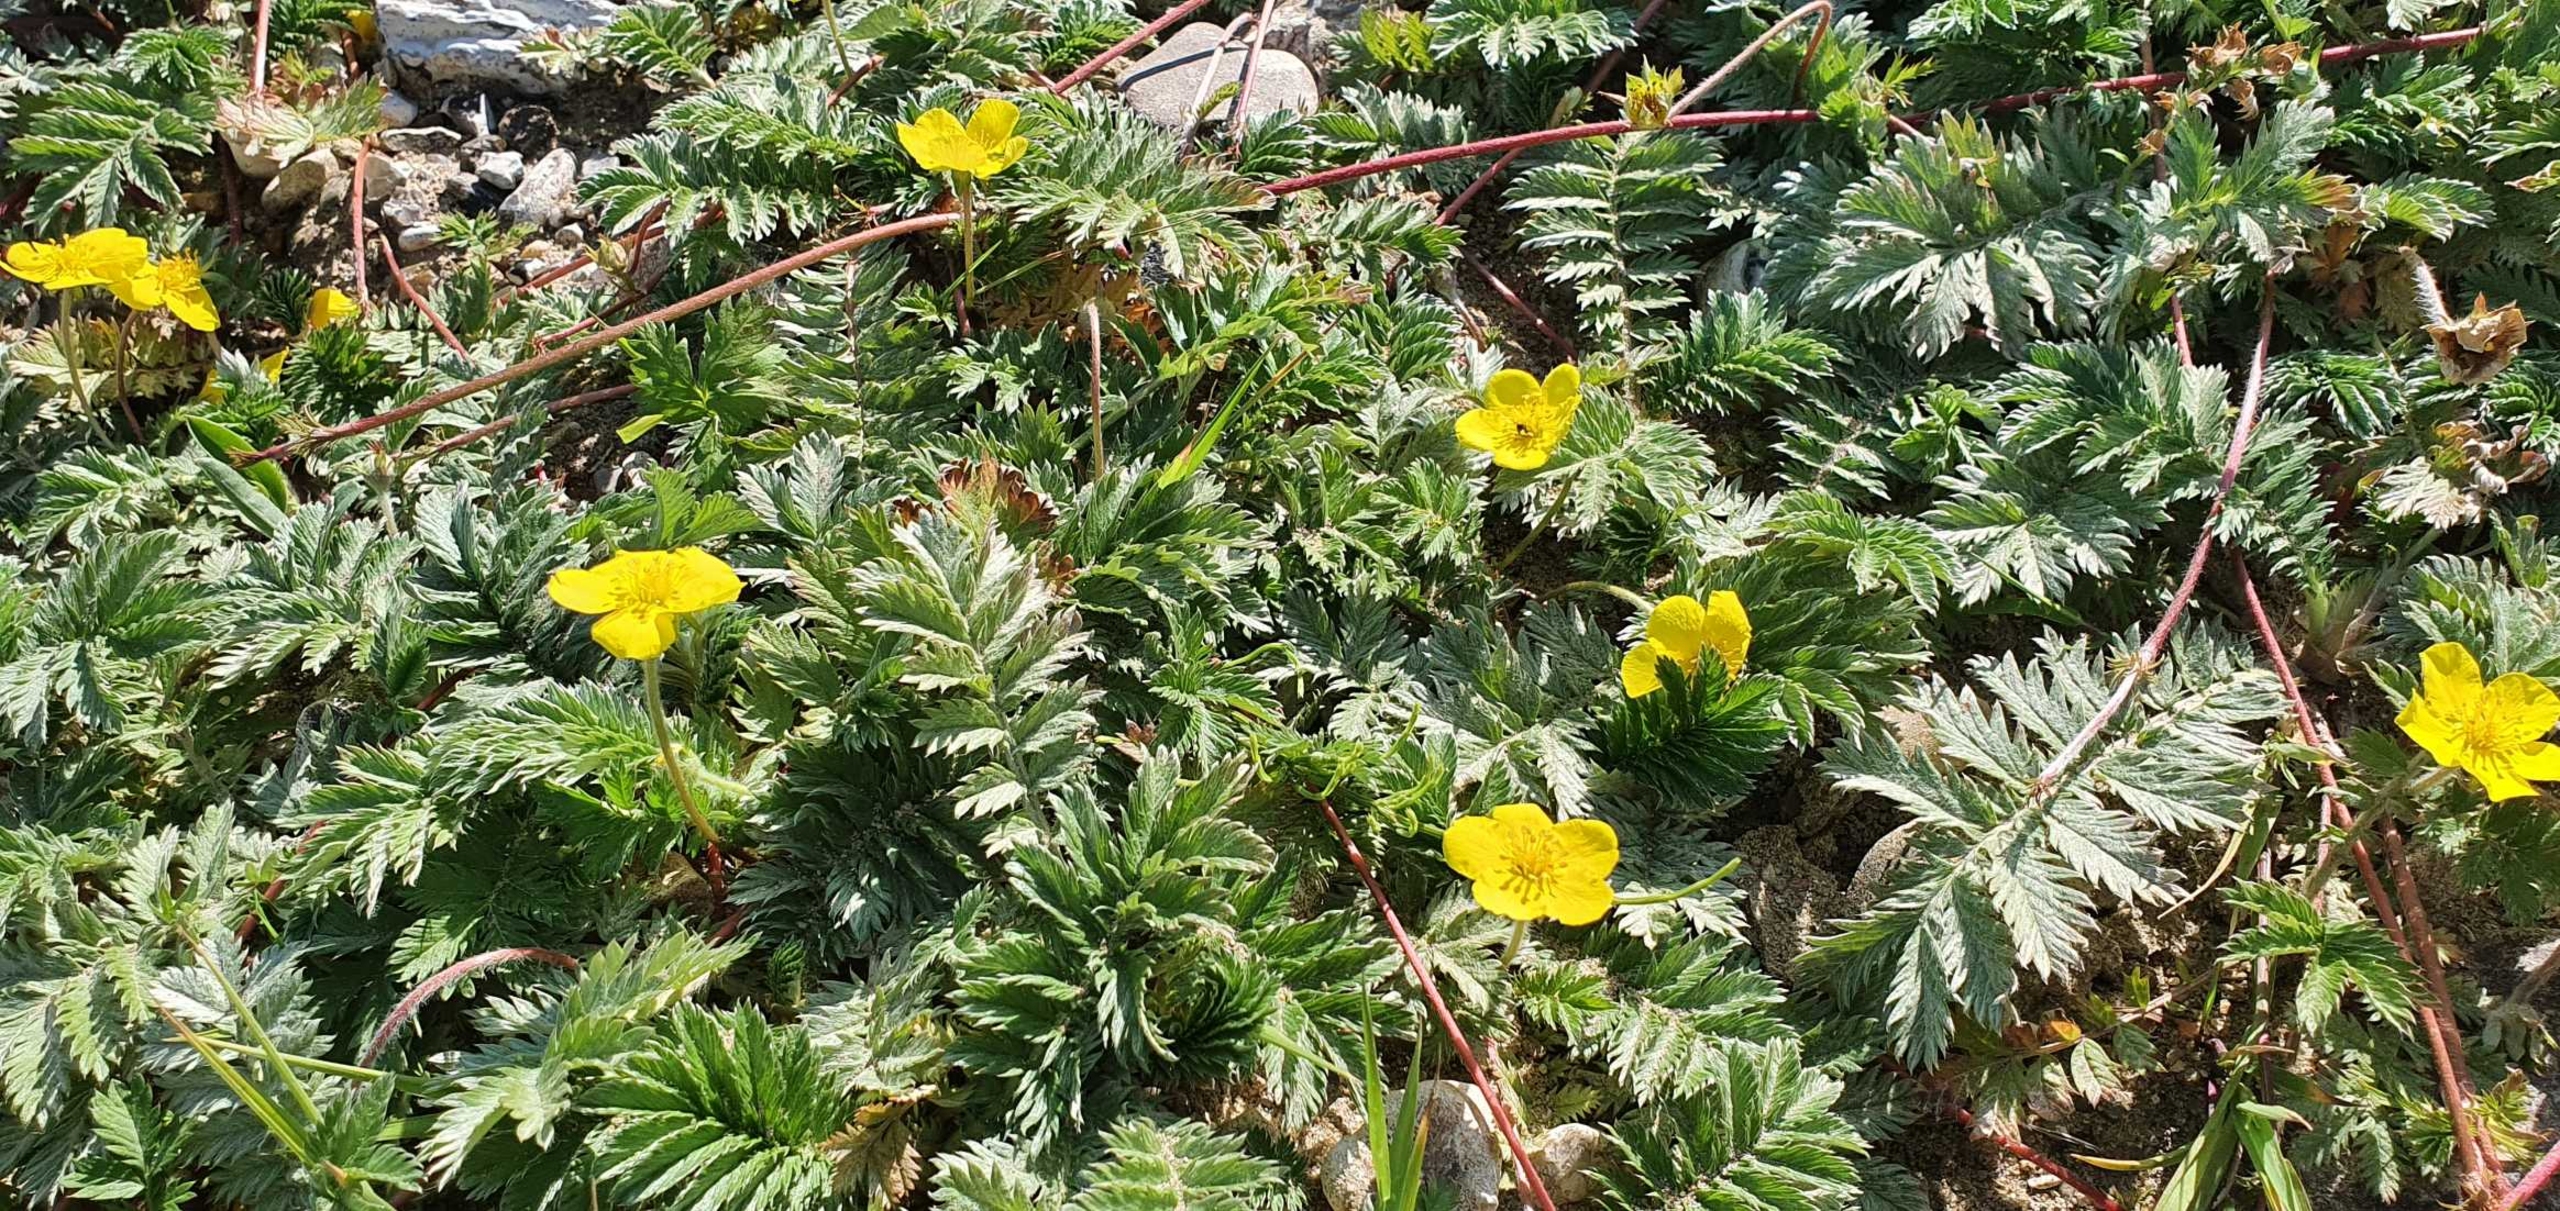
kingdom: Plantae
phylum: Tracheophyta
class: Magnoliopsida
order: Rosales
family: Rosaceae
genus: Argentina
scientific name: Argentina anserina
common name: Gåsepotentil
